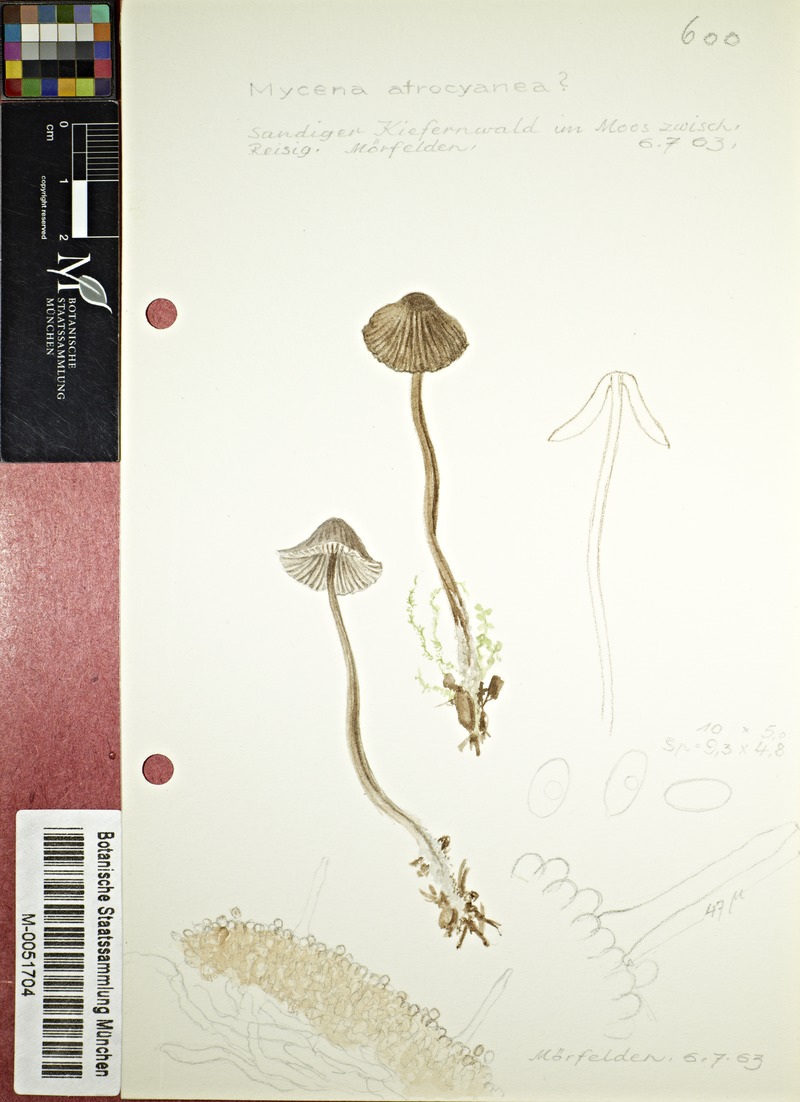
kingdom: Fungi
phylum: Basidiomycota
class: Agaricomycetes
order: Agaricales
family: Mycenaceae
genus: Mycena
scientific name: Mycena atrocyanea
